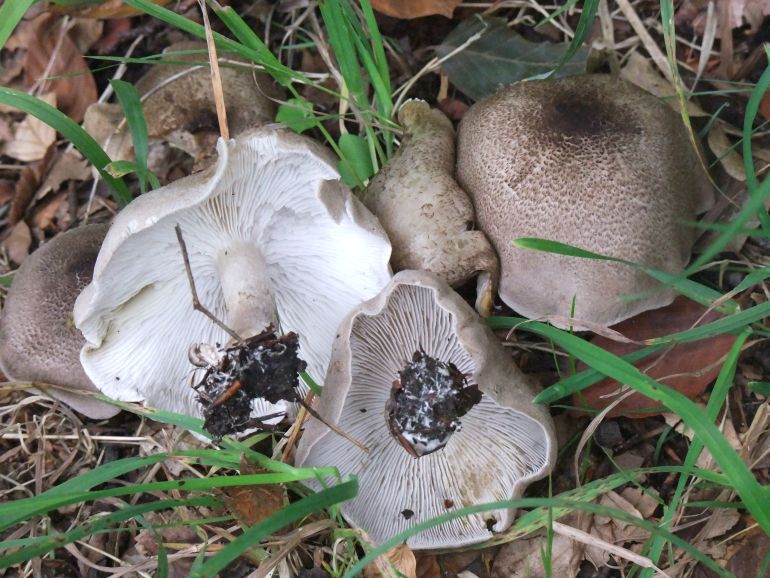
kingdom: Fungi
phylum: Basidiomycota
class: Agaricomycetes
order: Agaricales
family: Tricholomataceae
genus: Tricholoma
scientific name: Tricholoma scalpturatum
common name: gulplettet ridderhat
